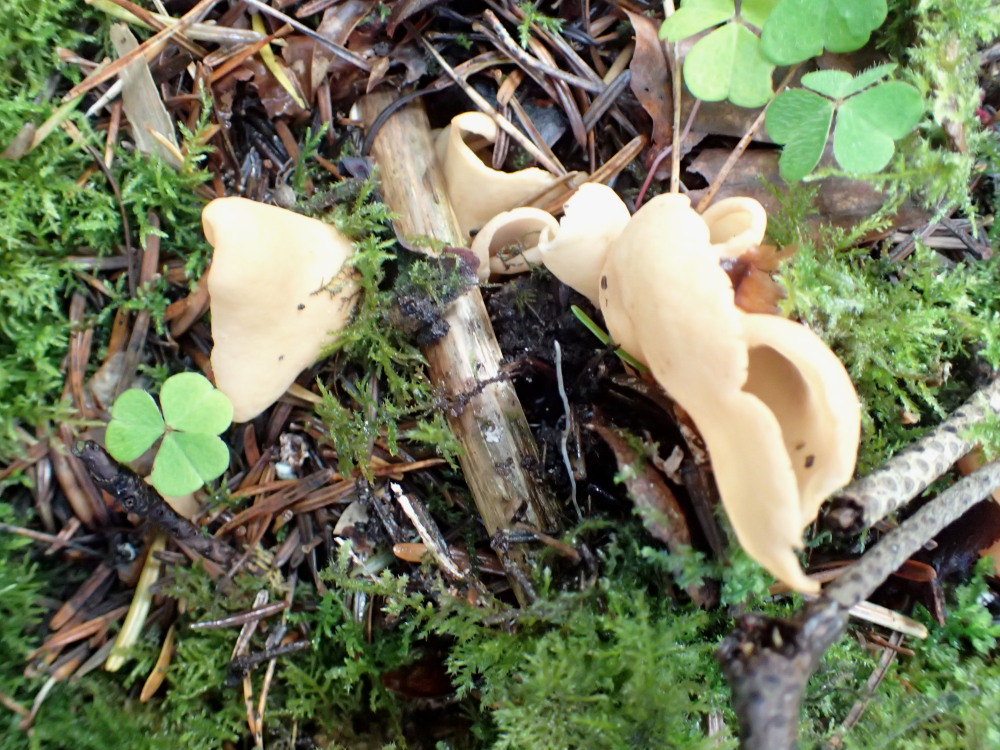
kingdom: Fungi
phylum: Ascomycota
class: Pezizomycetes
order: Pezizales
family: Otideaceae
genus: Otidea
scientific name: Otidea onotica
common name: æsel-ørebæger
